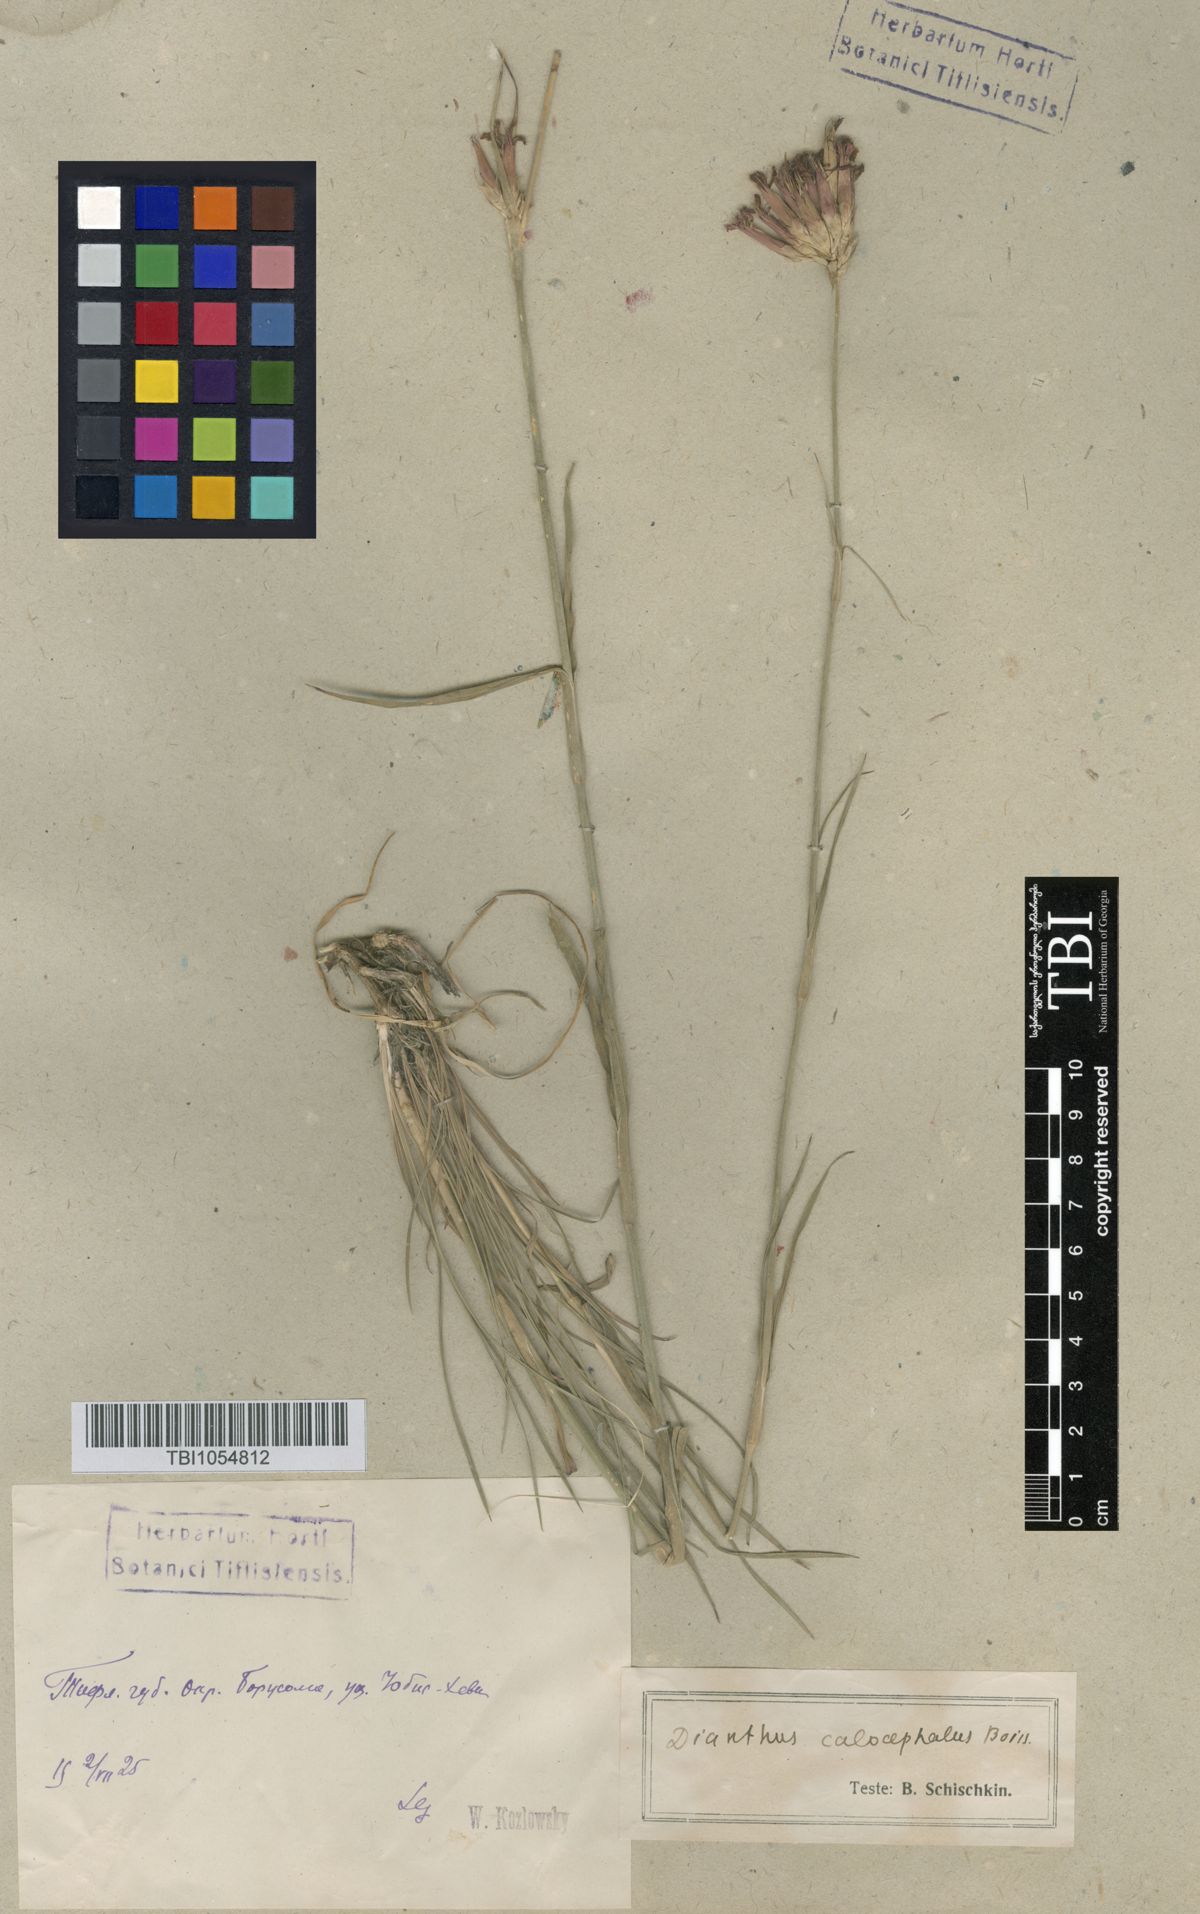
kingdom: Plantae
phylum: Tracheophyta
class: Magnoliopsida
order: Caryophyllales
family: Caryophyllaceae
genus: Dianthus
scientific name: Dianthus cruentus
